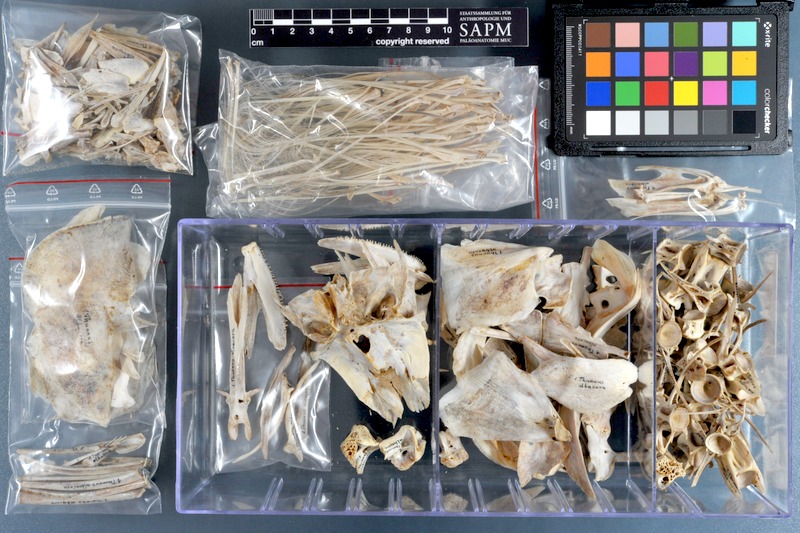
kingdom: Animalia
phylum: Chordata
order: Perciformes
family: Scombridae
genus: Thunnus
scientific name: Thunnus albacares
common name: Yellowfin tuna
